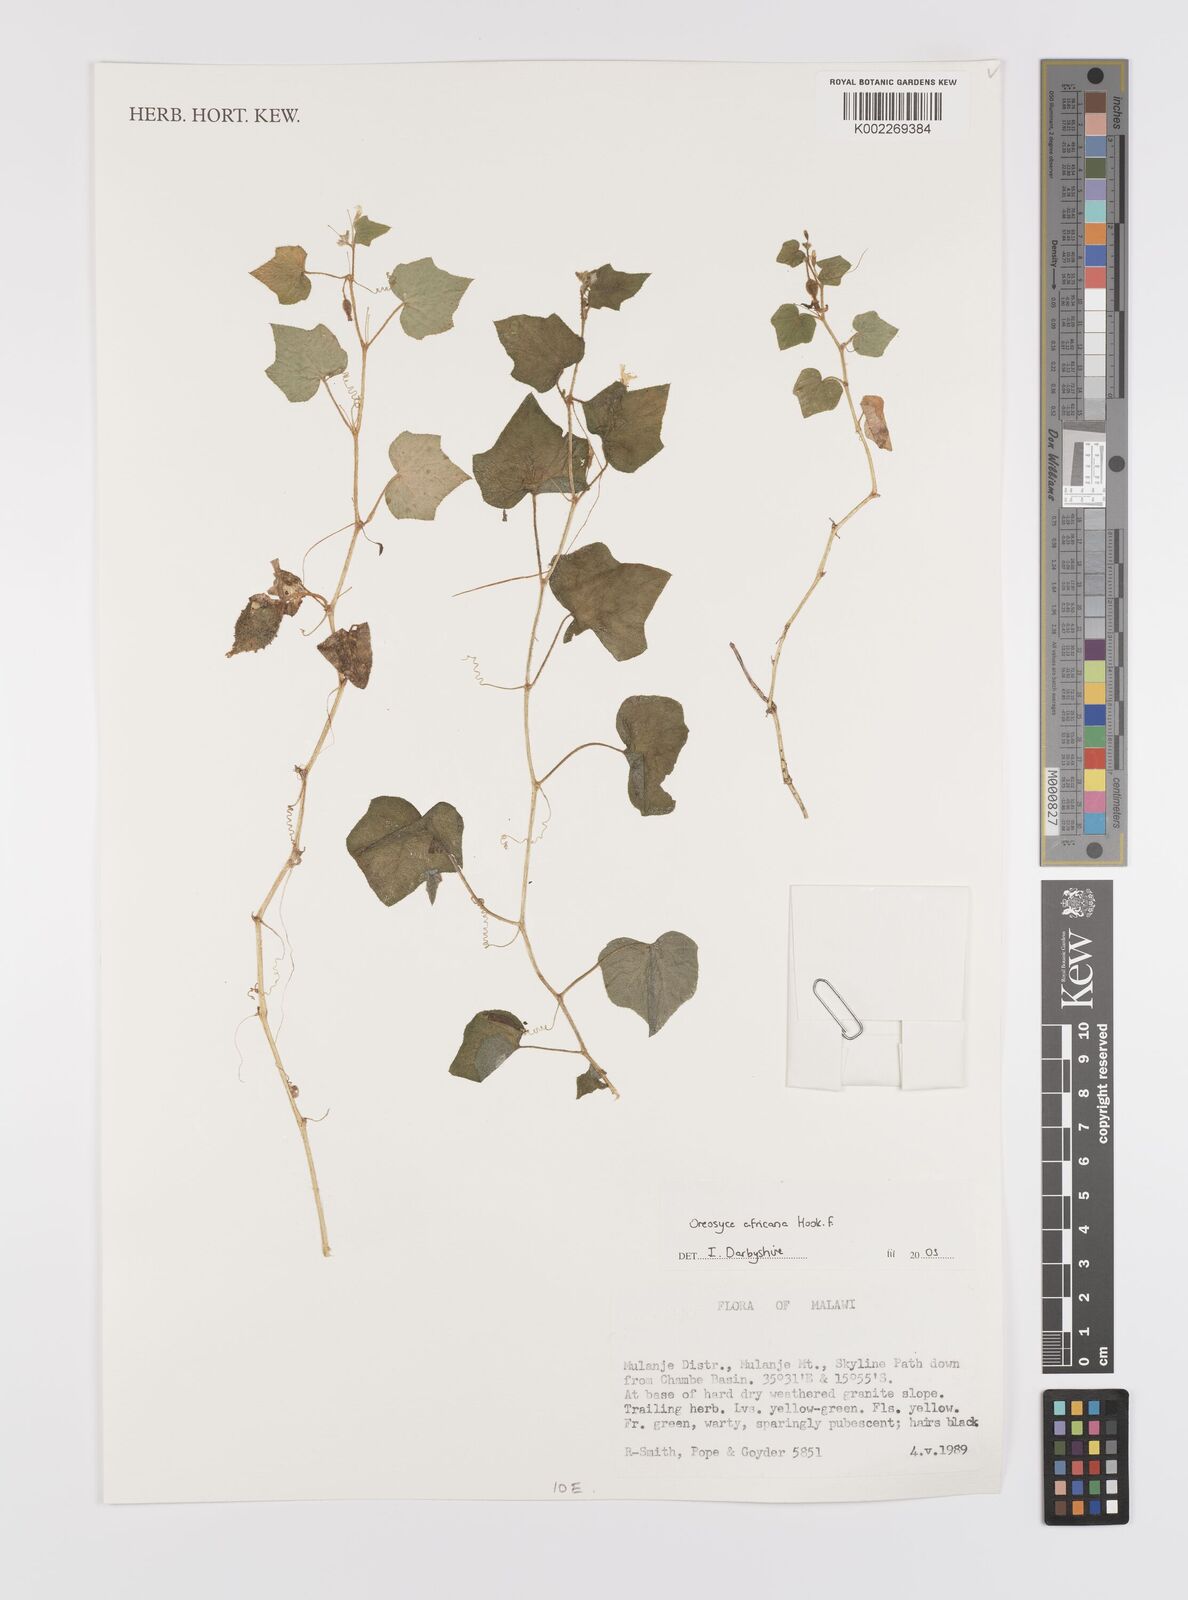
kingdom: Plantae
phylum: Tracheophyta
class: Magnoliopsida
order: Cucurbitales
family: Cucurbitaceae
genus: Cucumis
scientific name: Cucumis oreosyce
